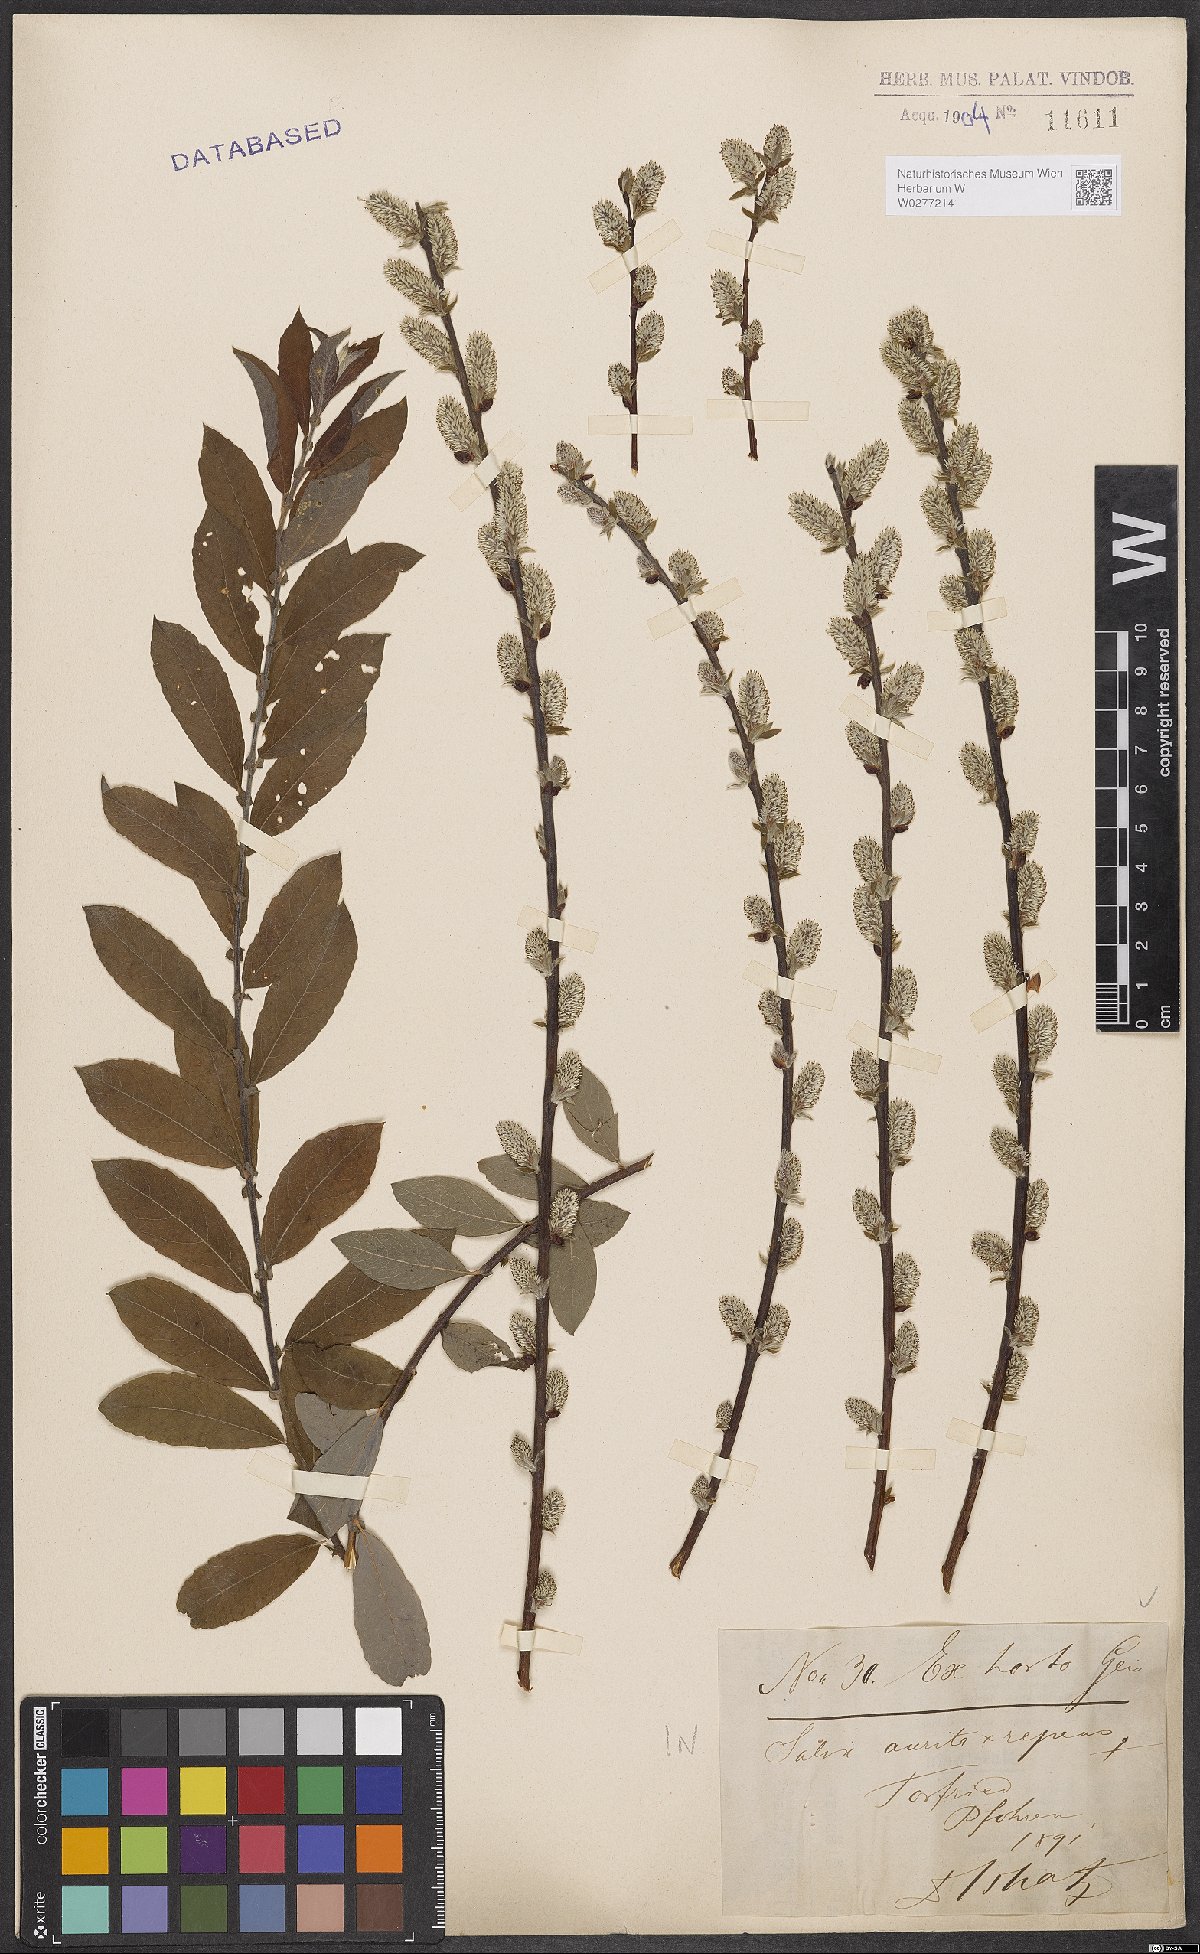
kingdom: Plantae
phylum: Tracheophyta
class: Magnoliopsida
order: Malpighiales
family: Salicaceae
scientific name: Salicaceae
